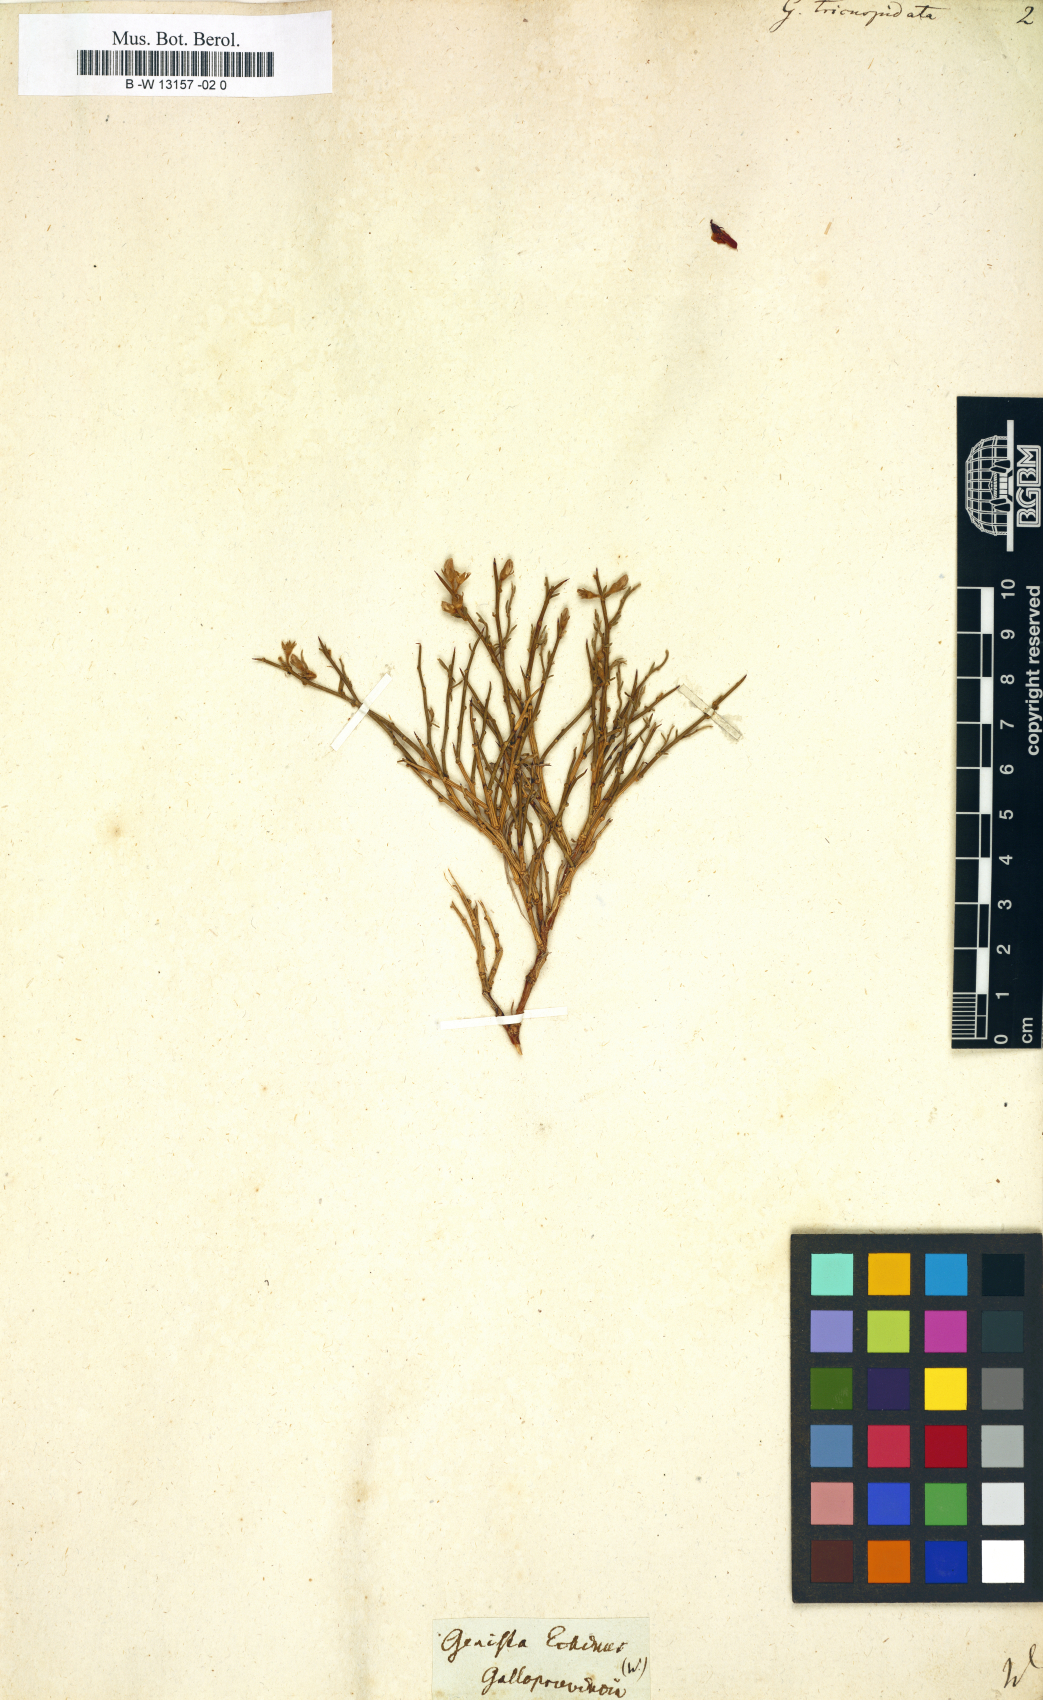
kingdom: Plantae
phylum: Tracheophyta
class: Magnoliopsida
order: Fabales
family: Fabaceae
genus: Genista
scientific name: Genista tricuspidata
